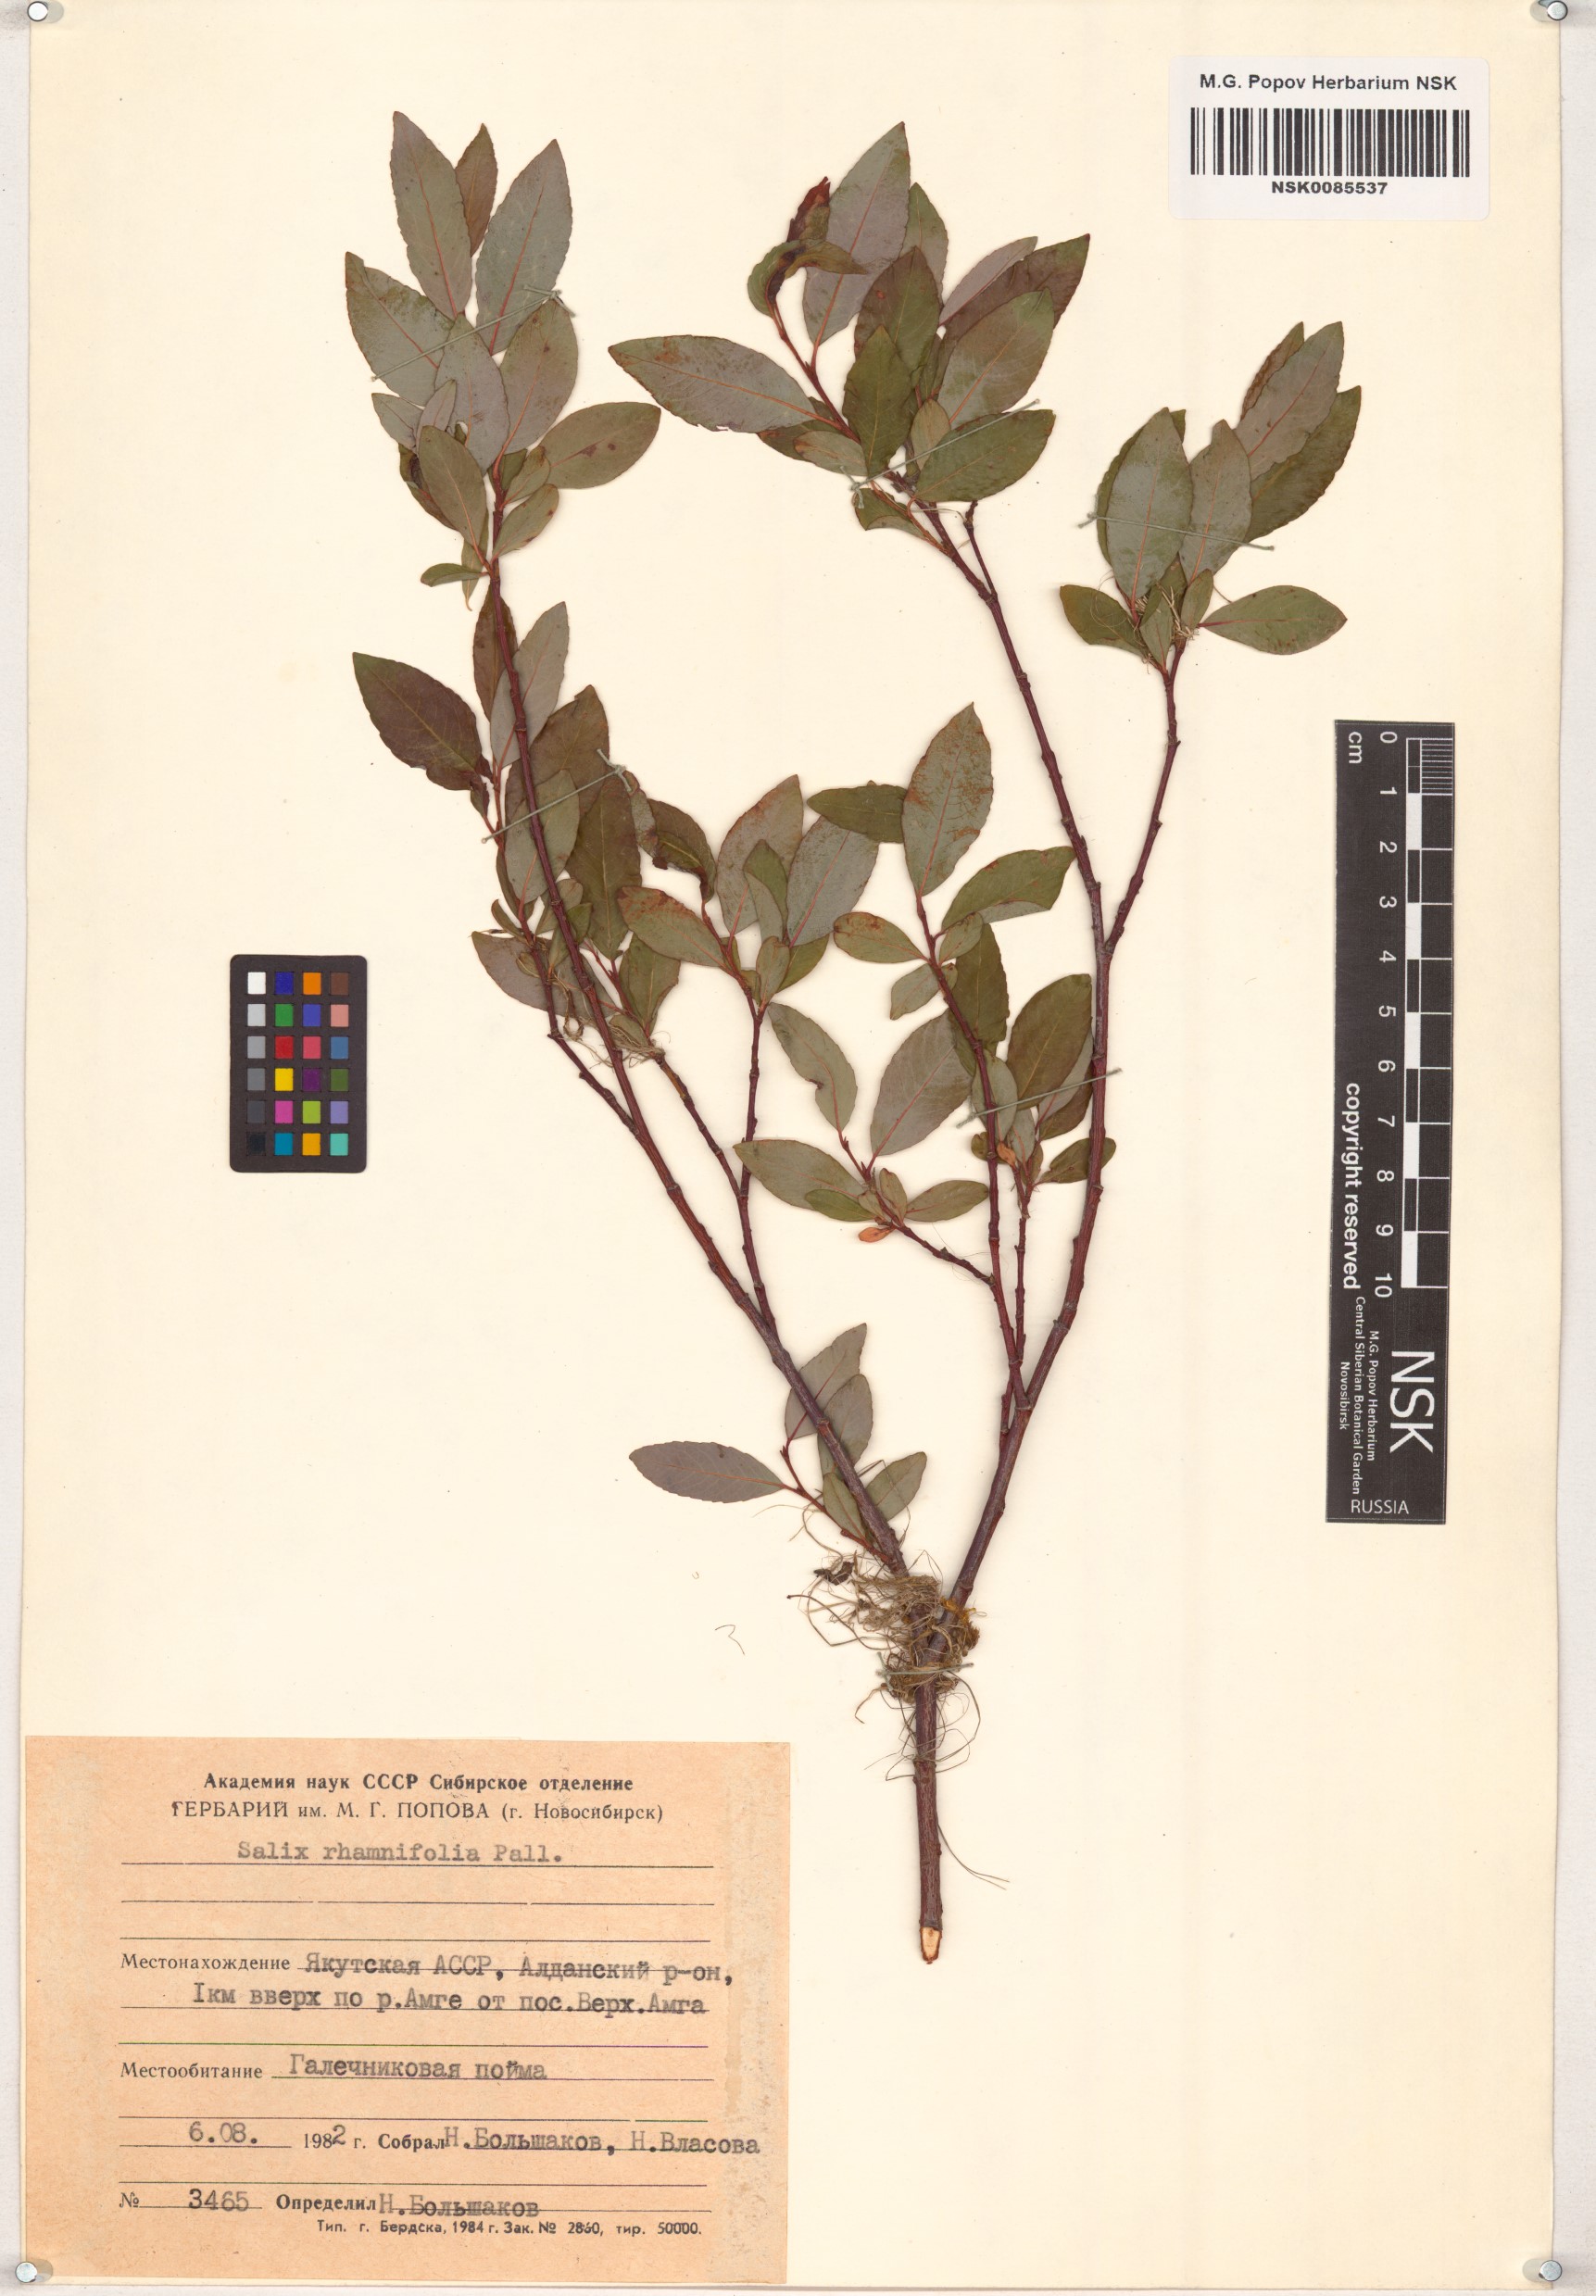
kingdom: Plantae
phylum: Tracheophyta
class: Magnoliopsida
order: Malpighiales
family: Salicaceae
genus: Salix
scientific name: Salix rhamnifolia
